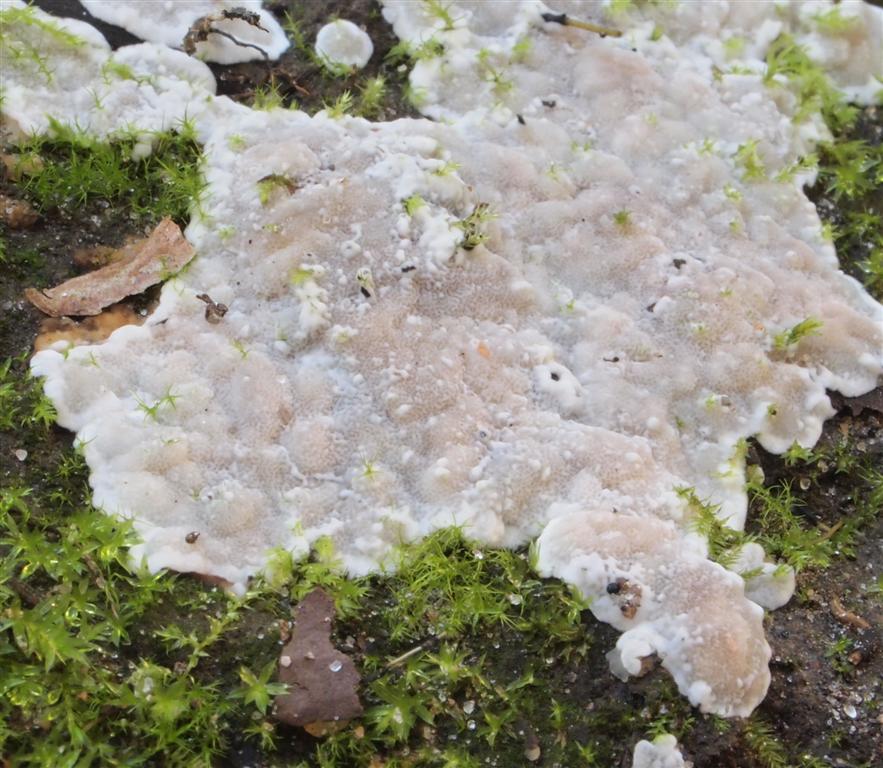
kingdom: Fungi
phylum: Basidiomycota
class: Agaricomycetes
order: Polyporales
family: Meruliaceae
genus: Physisporinus
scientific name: Physisporinus vitreus
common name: mastesvamp
